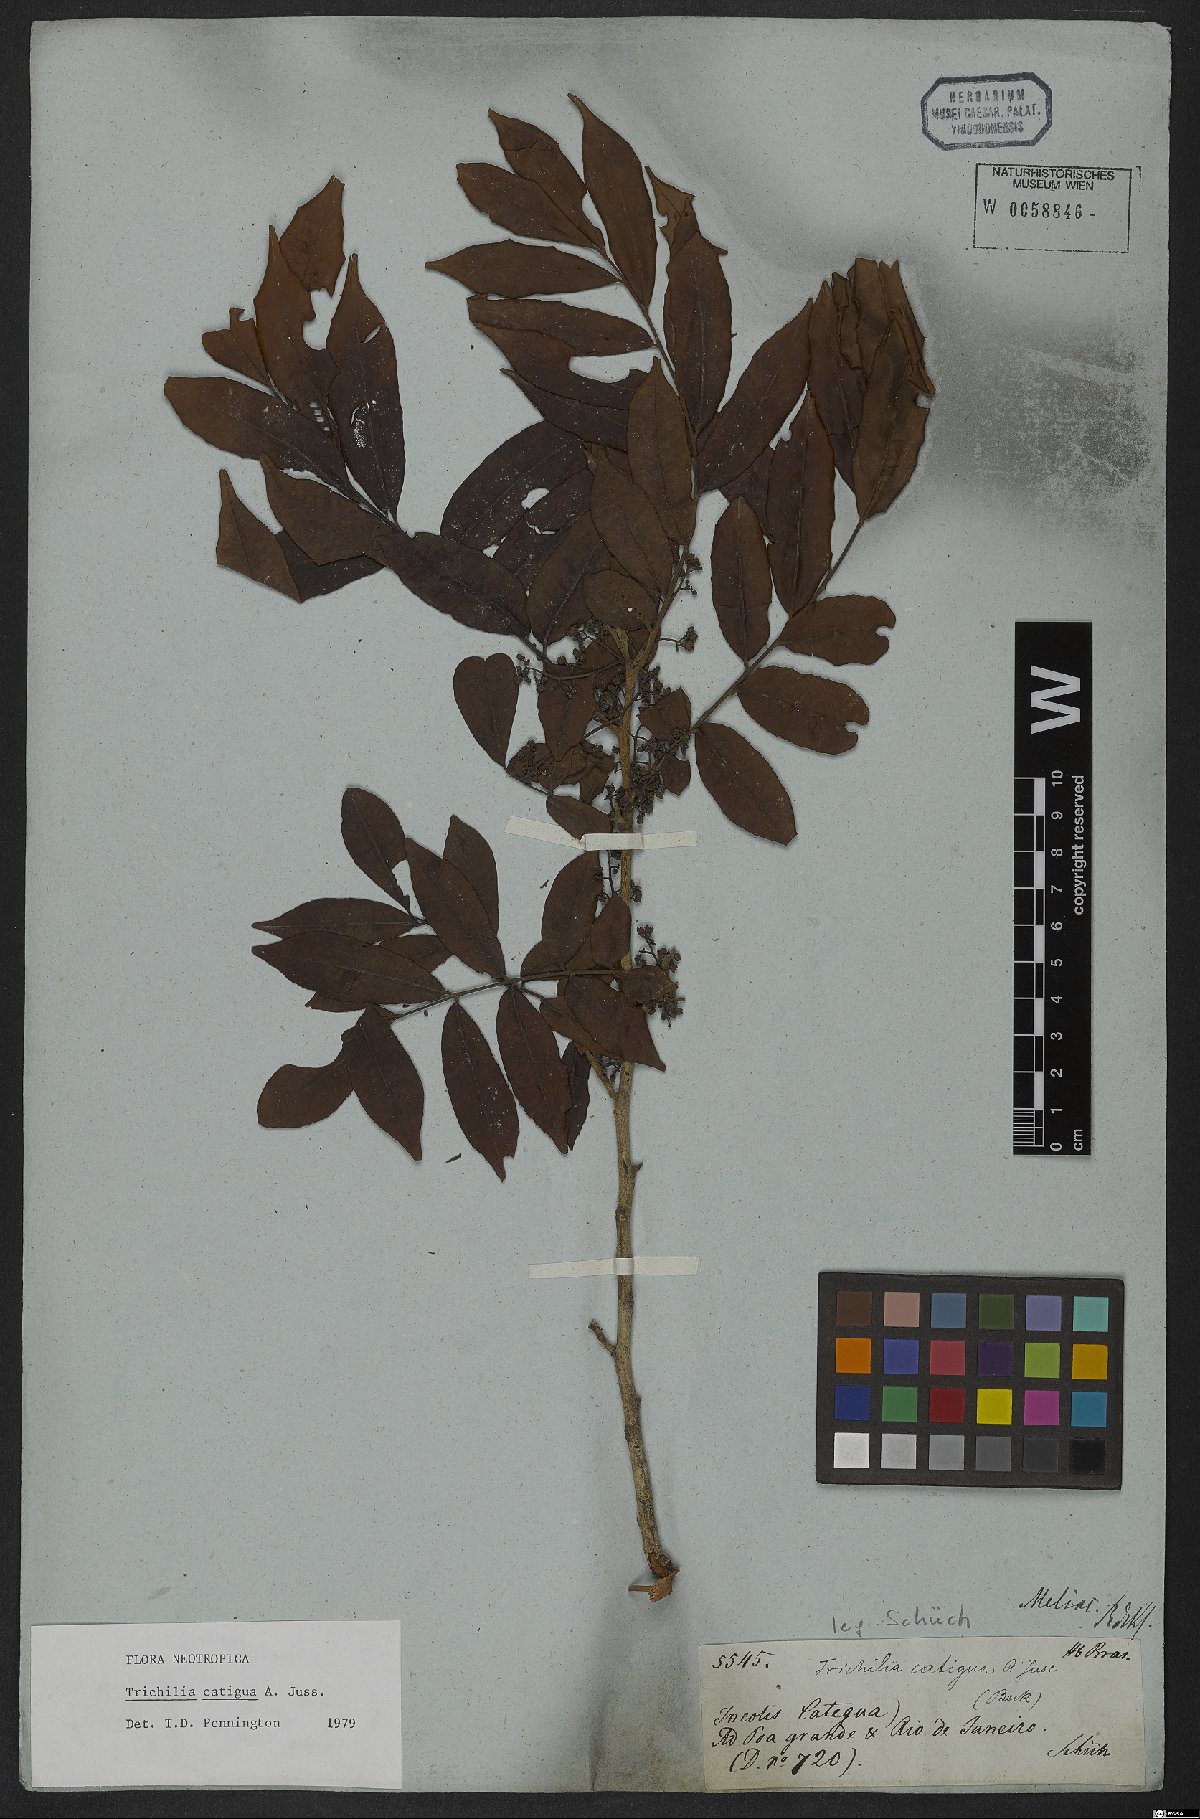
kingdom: Plantae
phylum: Tracheophyta
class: Magnoliopsida
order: Sapindales
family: Meliaceae
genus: Trichilia
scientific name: Trichilia catigua
